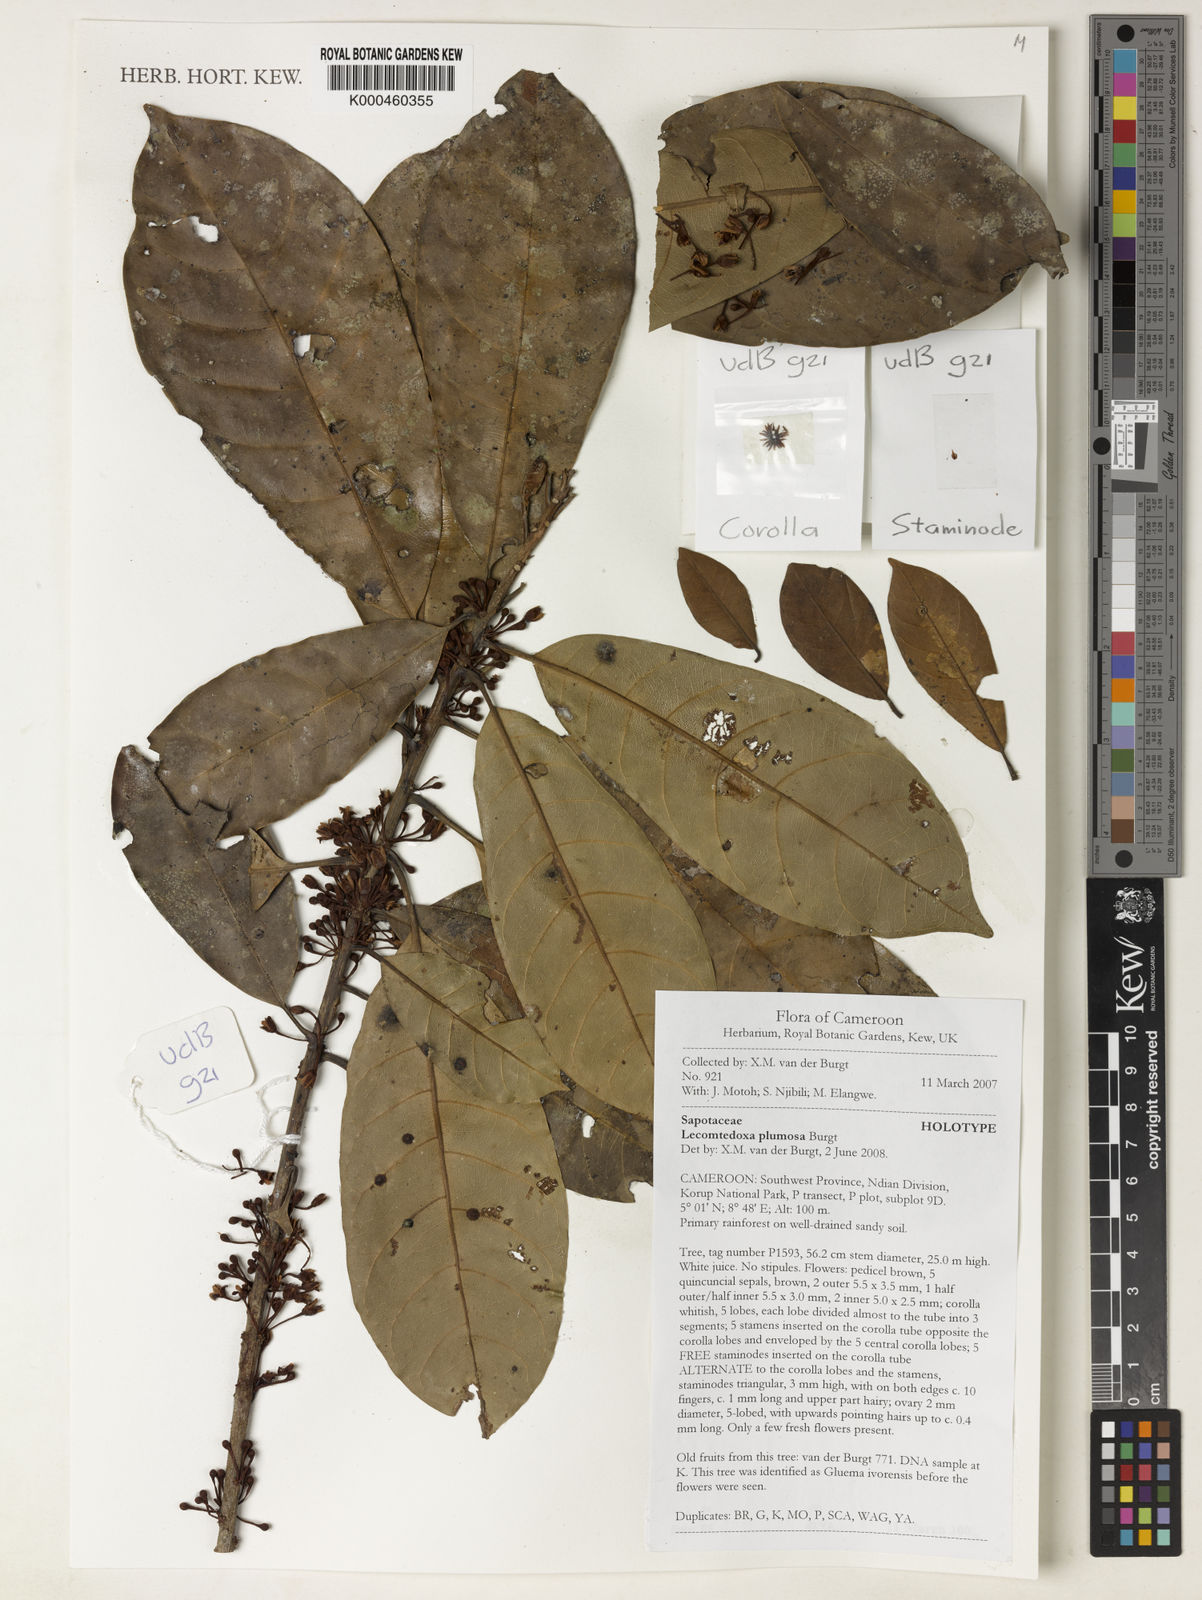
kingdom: Plantae
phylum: Tracheophyta
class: Magnoliopsida
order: Ericales
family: Sapotaceae
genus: Lecomtedoxa
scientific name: Lecomtedoxa plumosa
